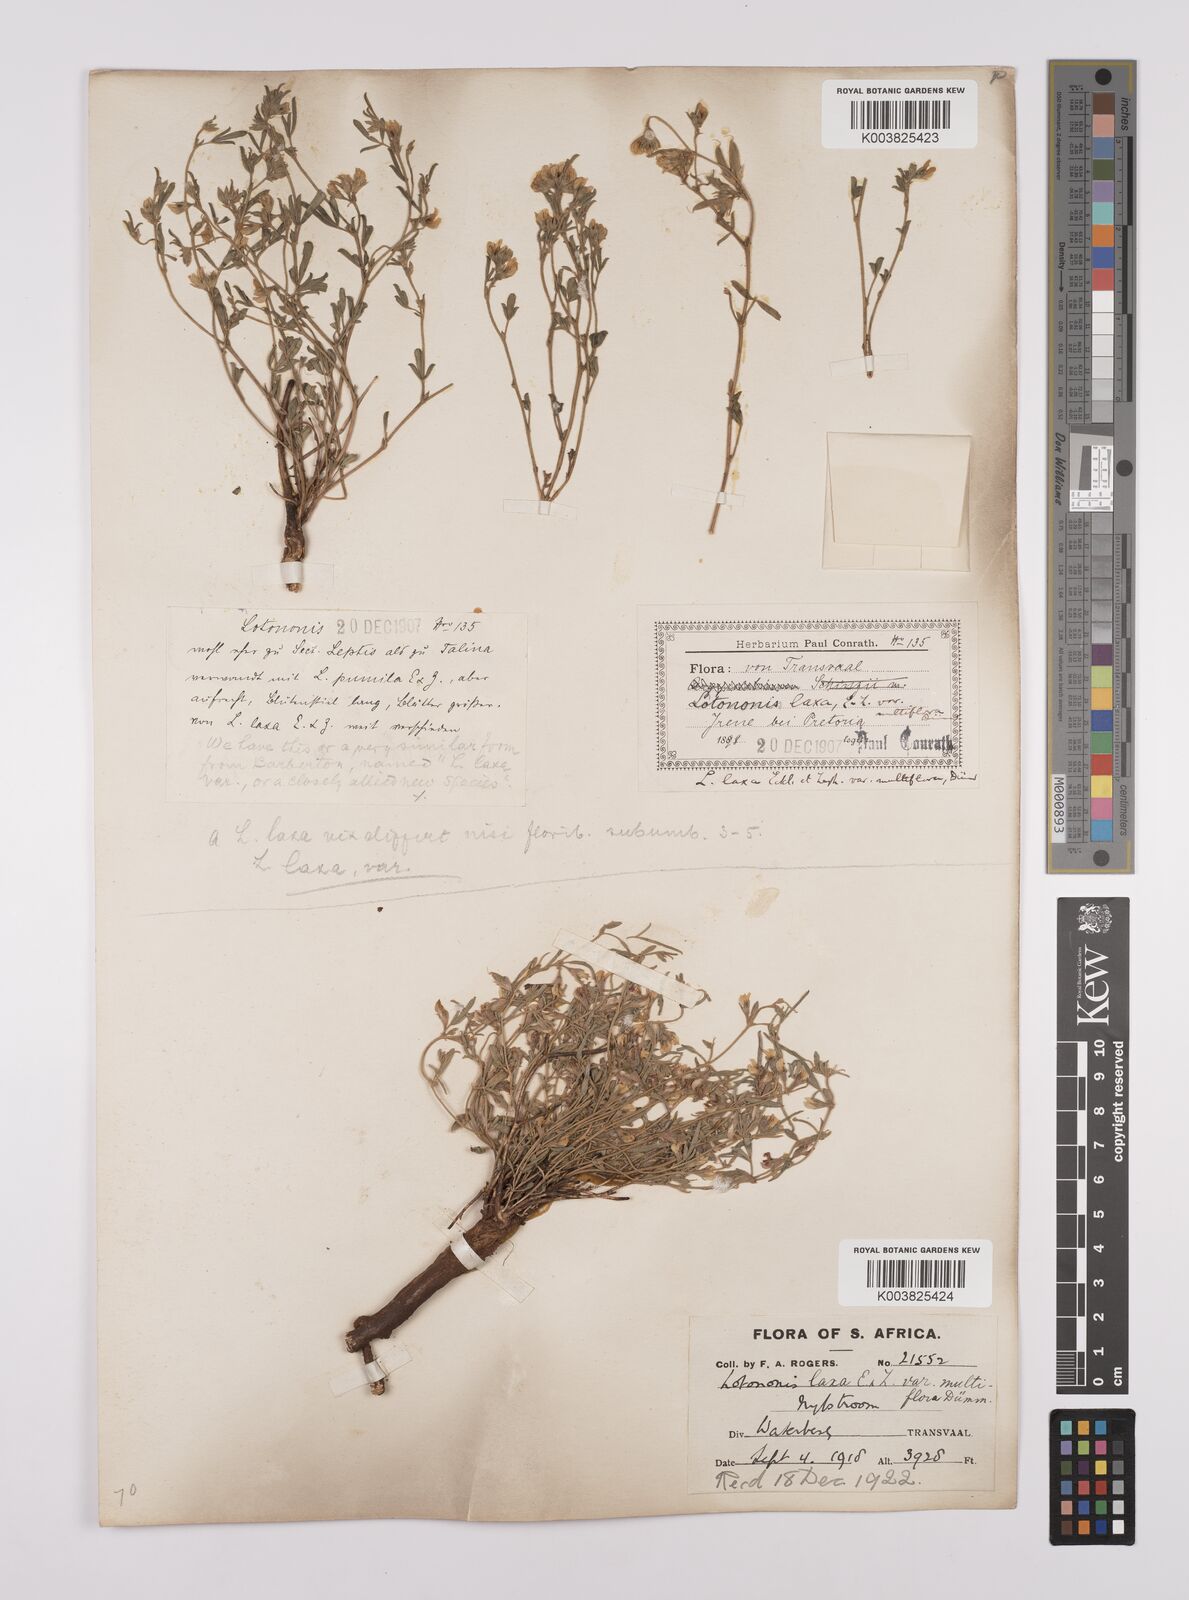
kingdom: Plantae
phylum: Tracheophyta
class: Magnoliopsida
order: Fabales
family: Fabaceae
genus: Lotononis
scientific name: Lotononis laxa
